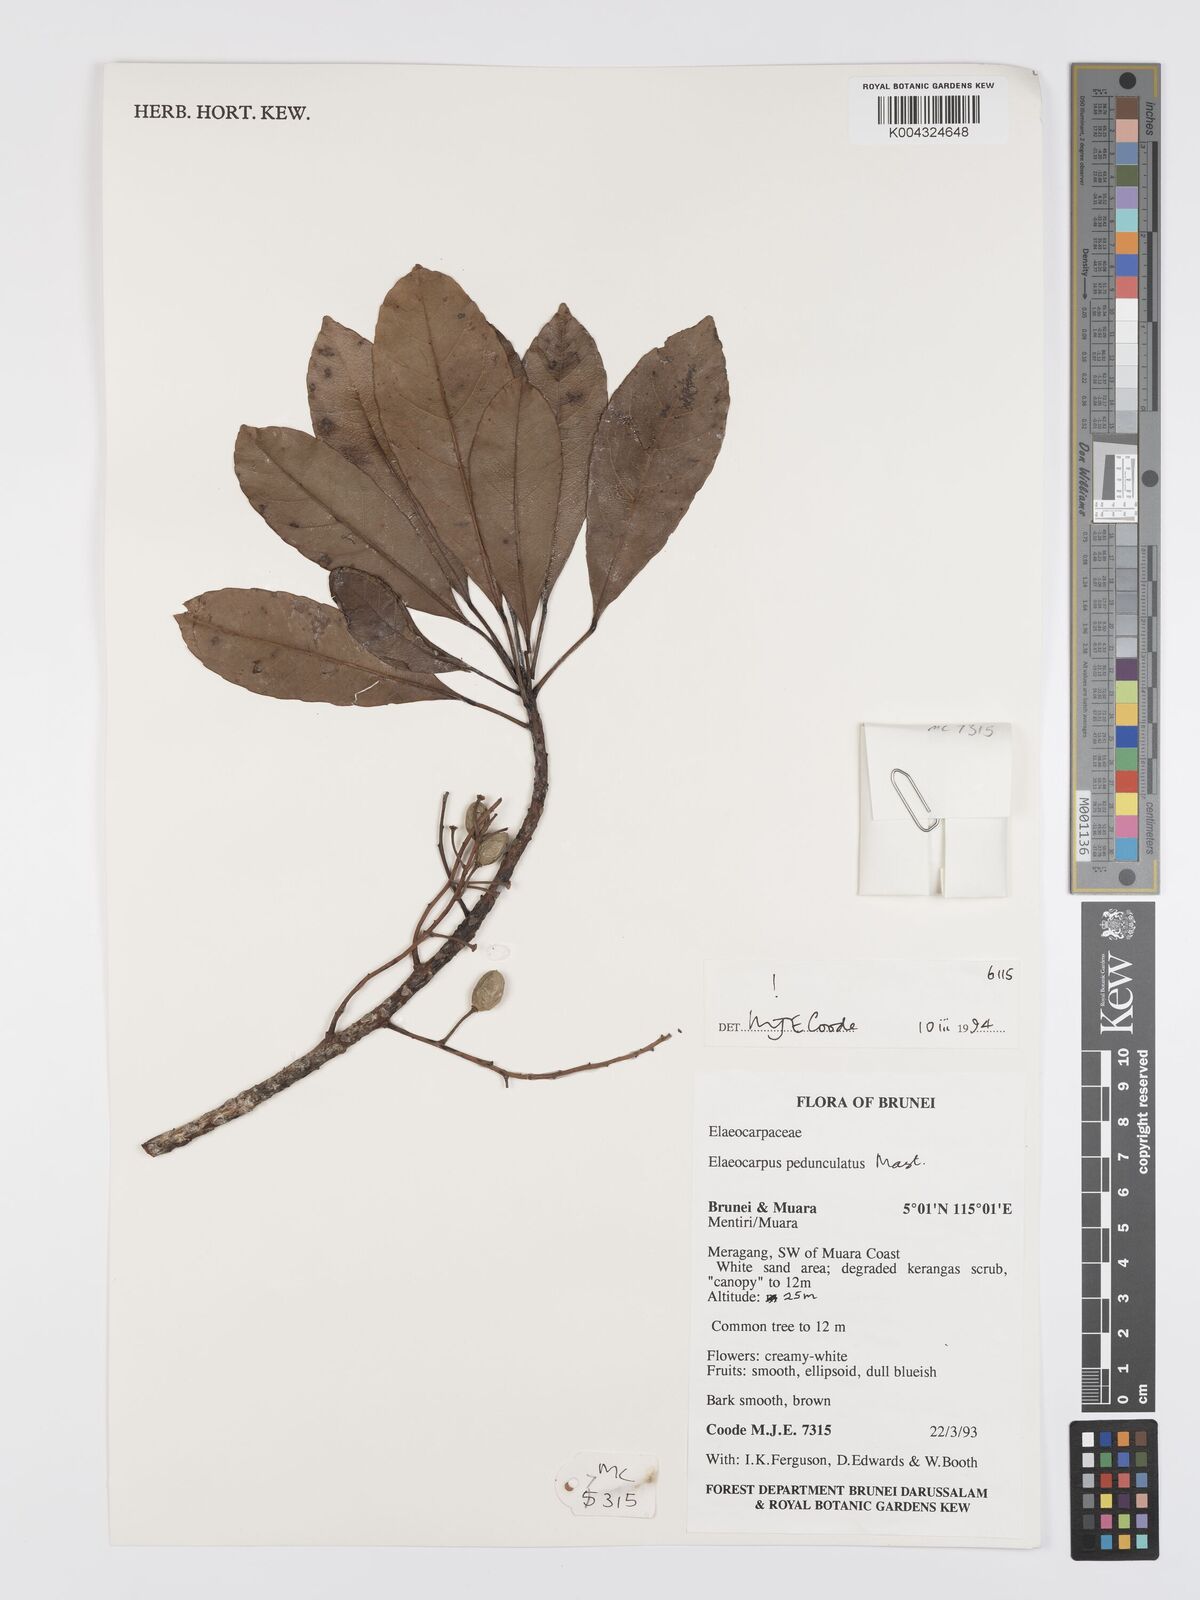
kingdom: Plantae
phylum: Tracheophyta
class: Magnoliopsida
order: Oxalidales
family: Elaeocarpaceae
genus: Elaeocarpus
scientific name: Elaeocarpus pedunculatus
